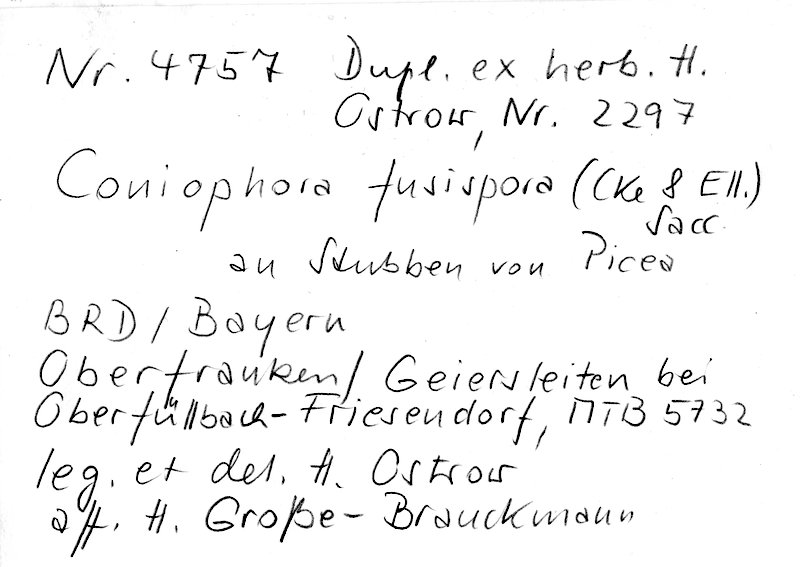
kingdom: Plantae
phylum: Tracheophyta
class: Pinopsida
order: Pinales
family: Pinaceae
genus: Picea
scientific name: Picea
